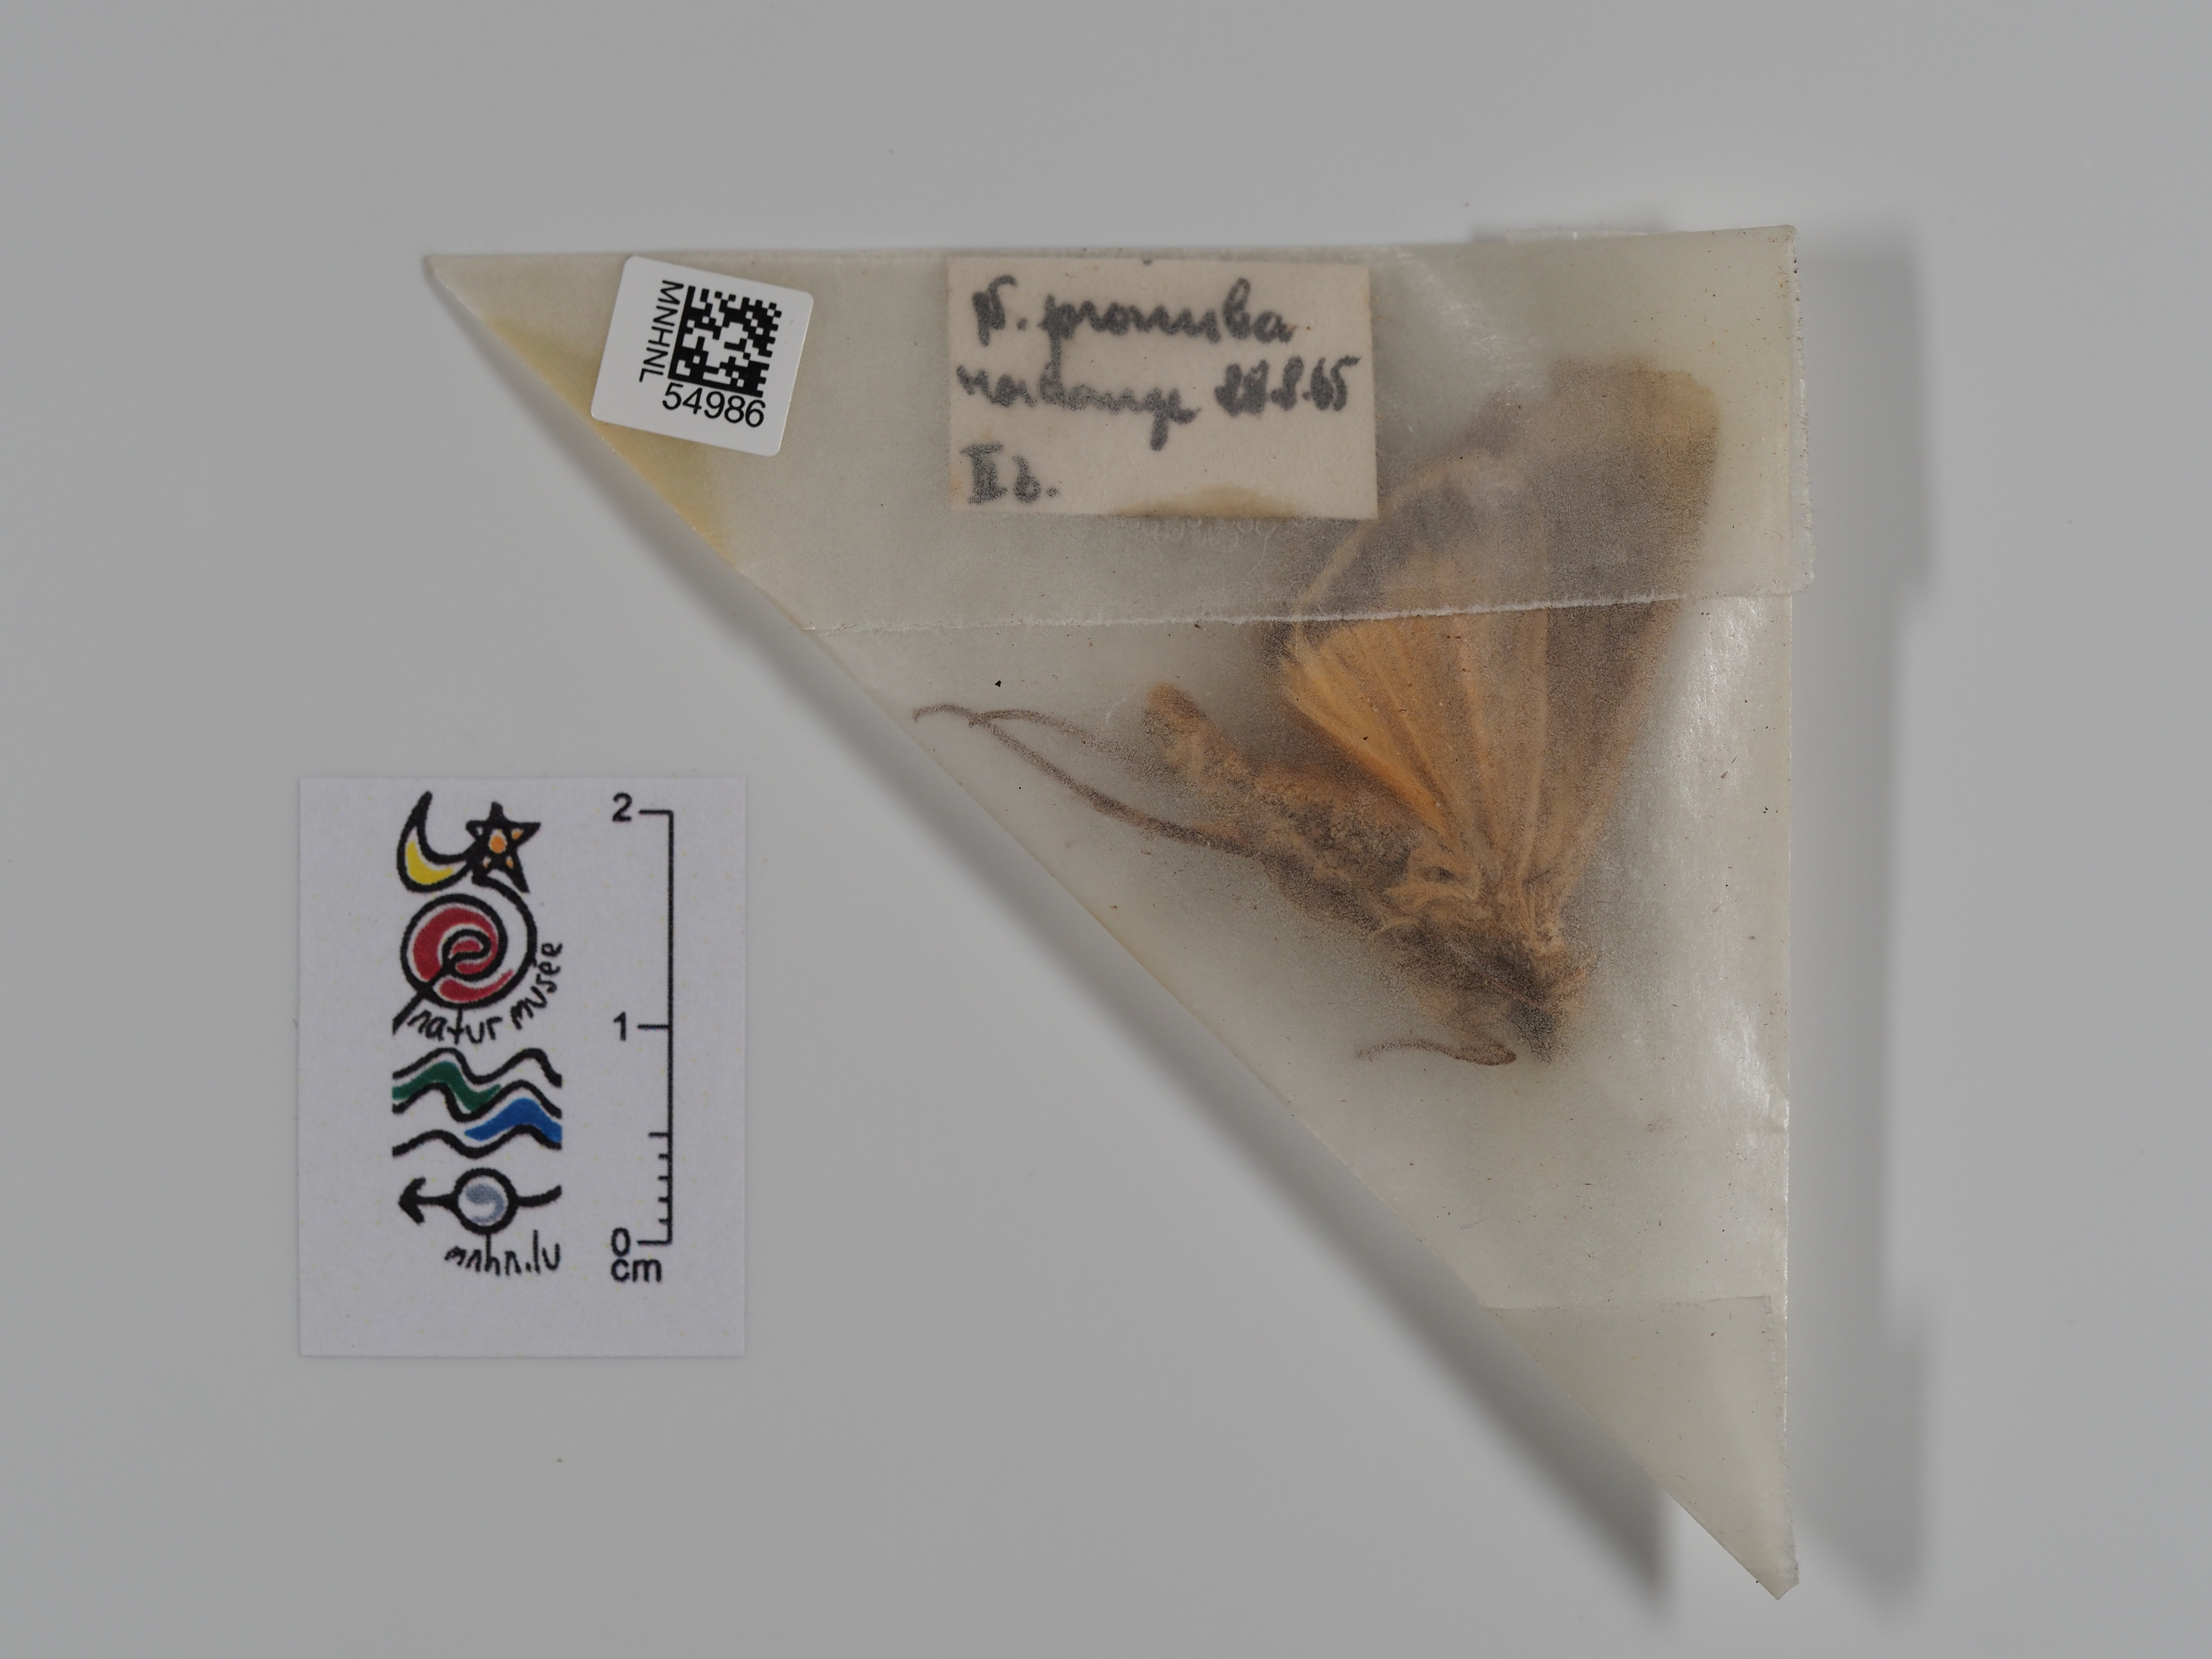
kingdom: Animalia
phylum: Arthropoda
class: Insecta
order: Lepidoptera
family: Noctuidae
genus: Noctua
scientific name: Noctua pronuba
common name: Large yellow underwing
